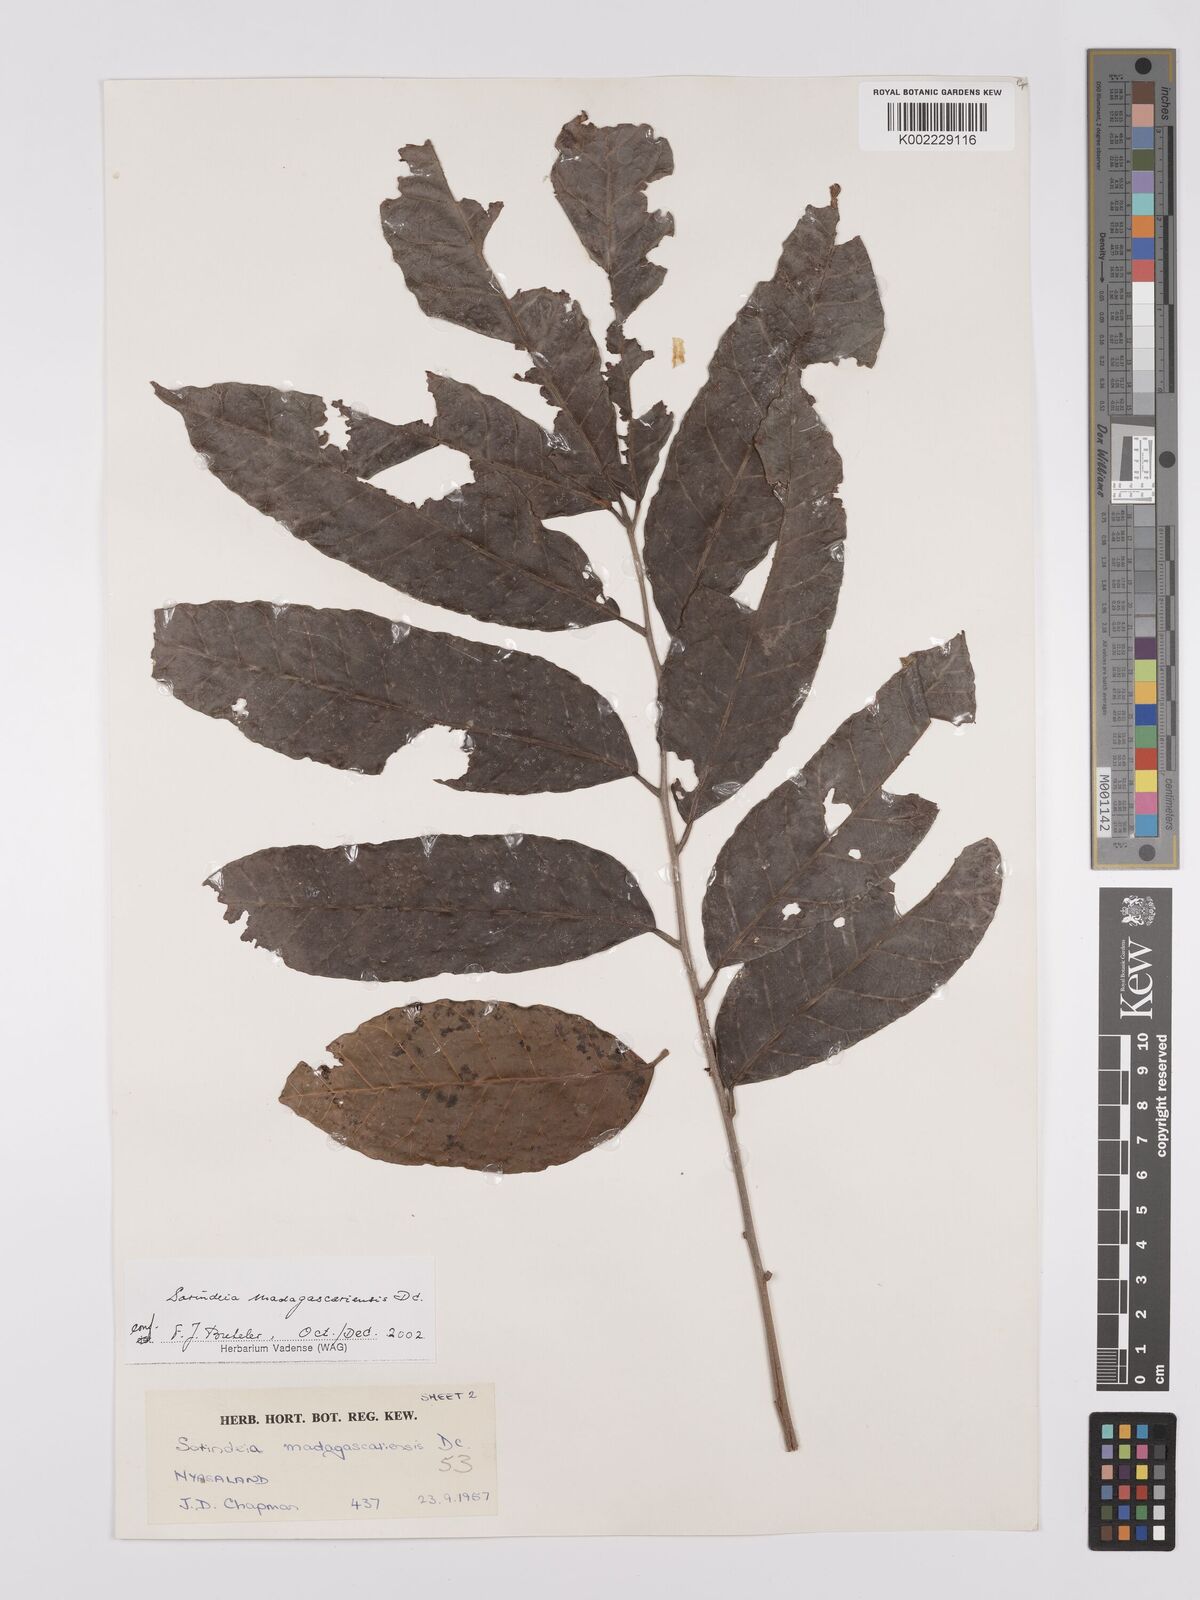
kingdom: Plantae
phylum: Tracheophyta
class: Magnoliopsida
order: Sapindales
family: Anacardiaceae
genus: Sorindeia
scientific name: Sorindeia madagascariensis
